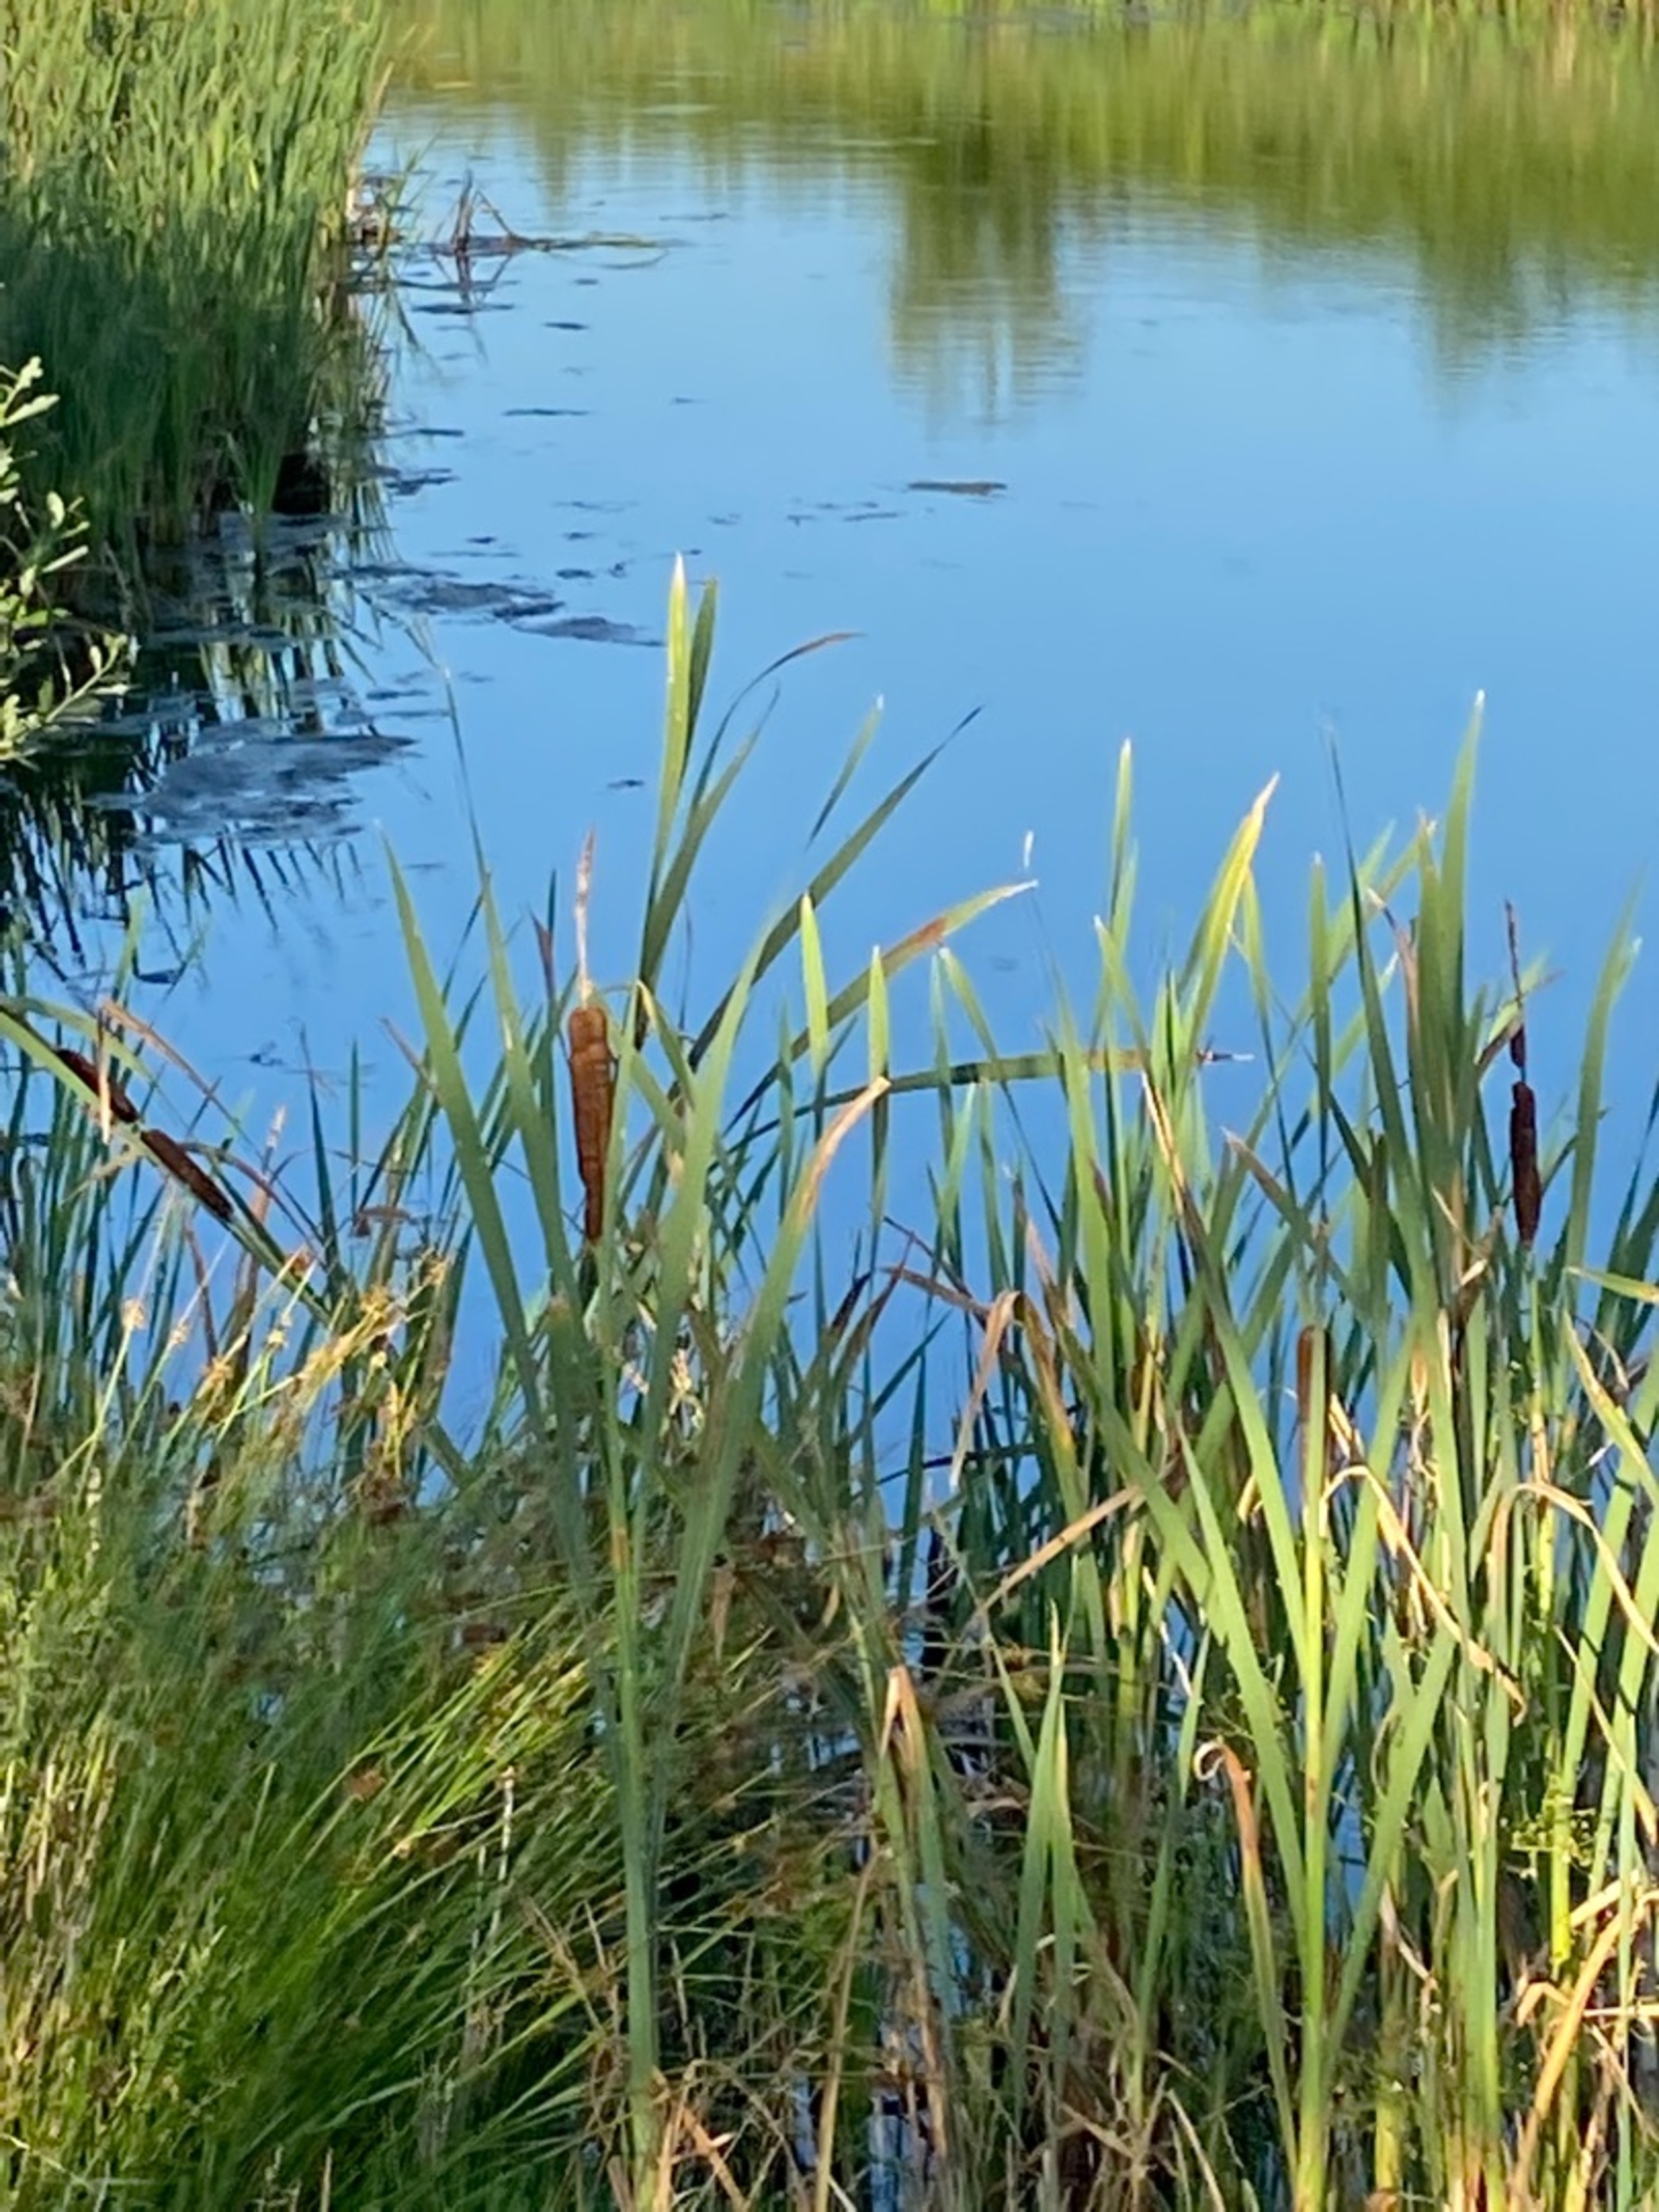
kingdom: Plantae
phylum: Tracheophyta
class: Liliopsida
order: Poales
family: Typhaceae
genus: Typha
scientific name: Typha latifolia
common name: Bredbladet dunhammer
